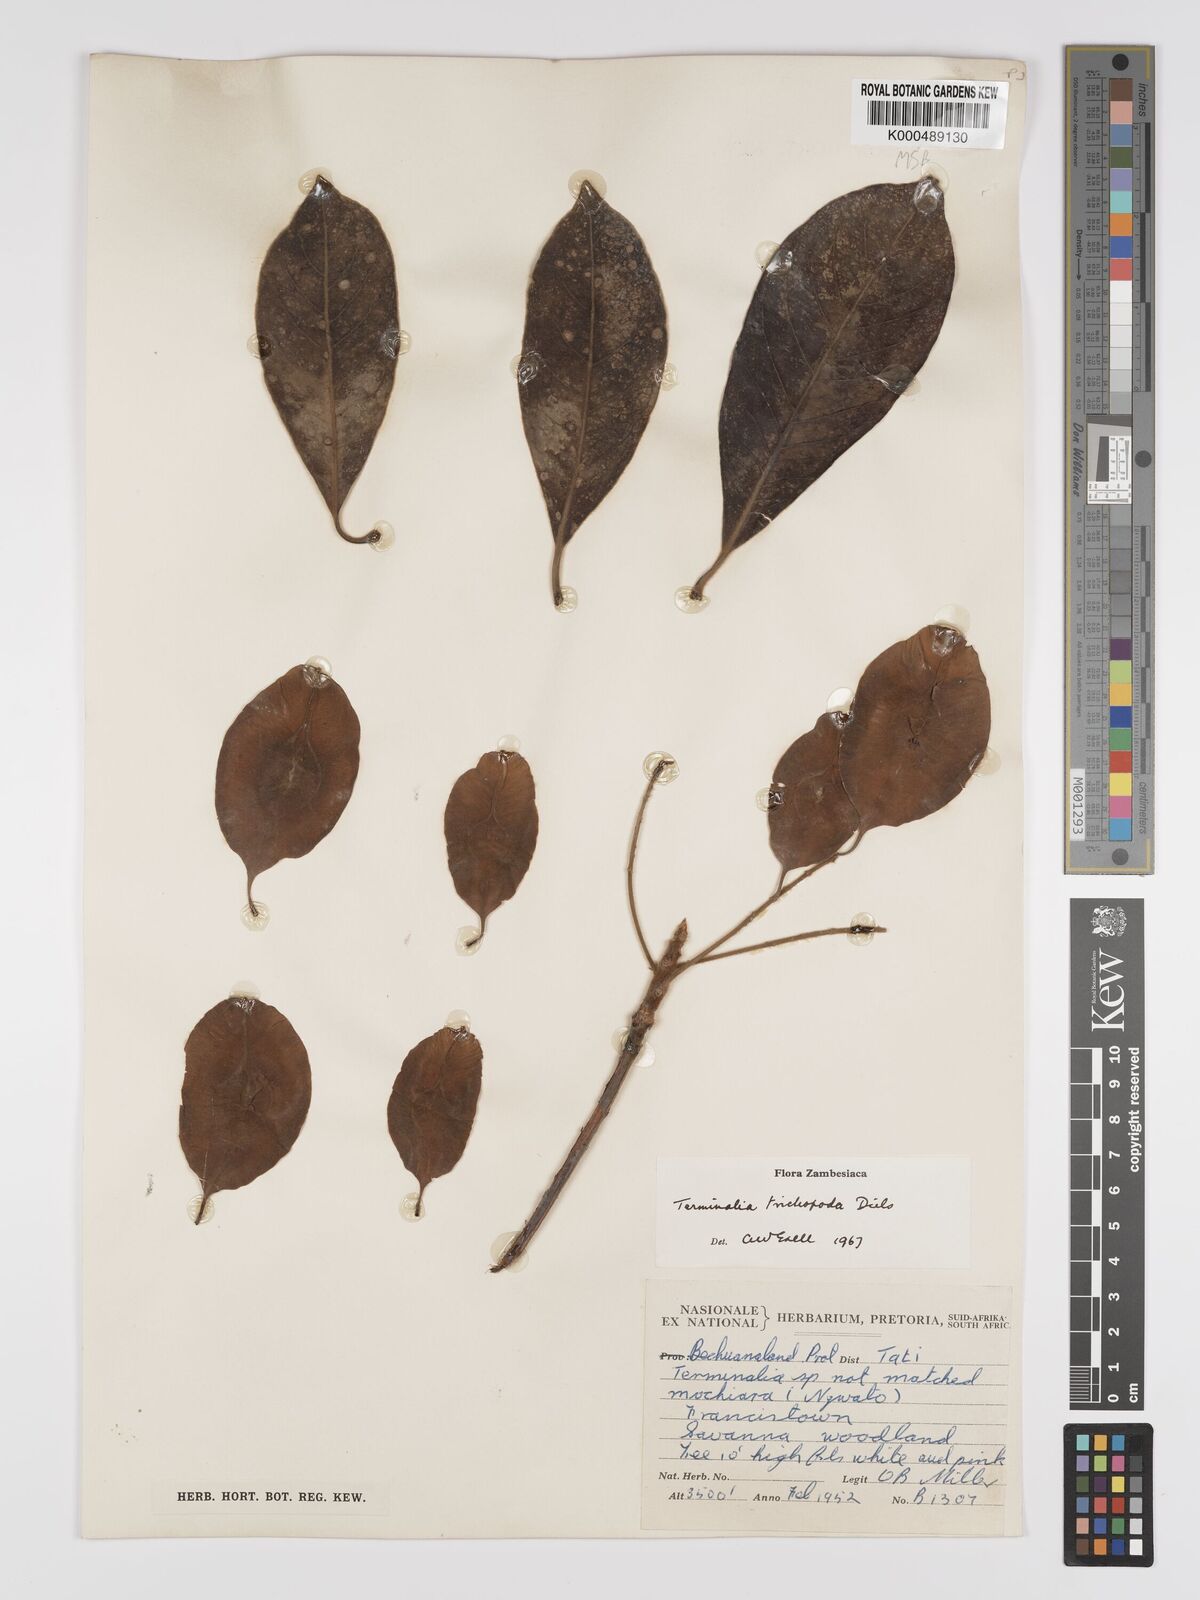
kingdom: Plantae
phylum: Tracheophyta
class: Magnoliopsida
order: Myrtales
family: Combretaceae
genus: Terminalia
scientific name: Terminalia trichopoda
